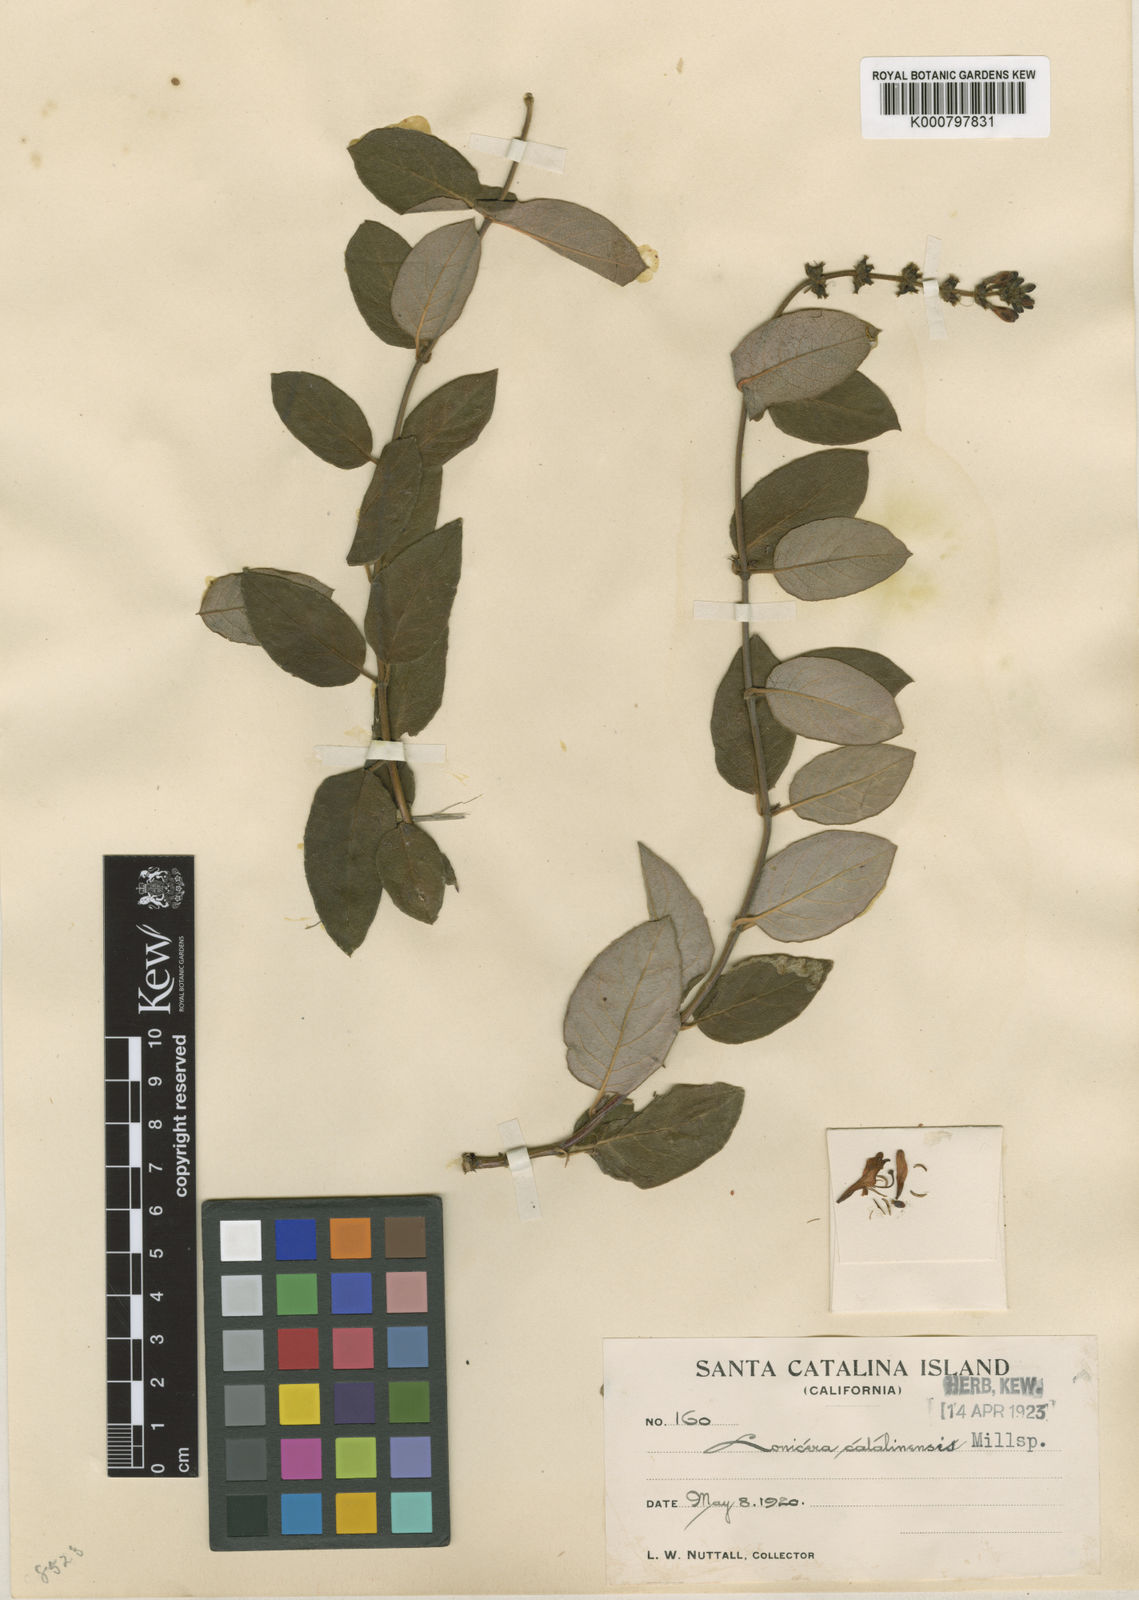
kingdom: Plantae
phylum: Tracheophyta
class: Magnoliopsida
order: Dipsacales
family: Caprifoliaceae
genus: Lonicera
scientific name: Lonicera catalinensis
